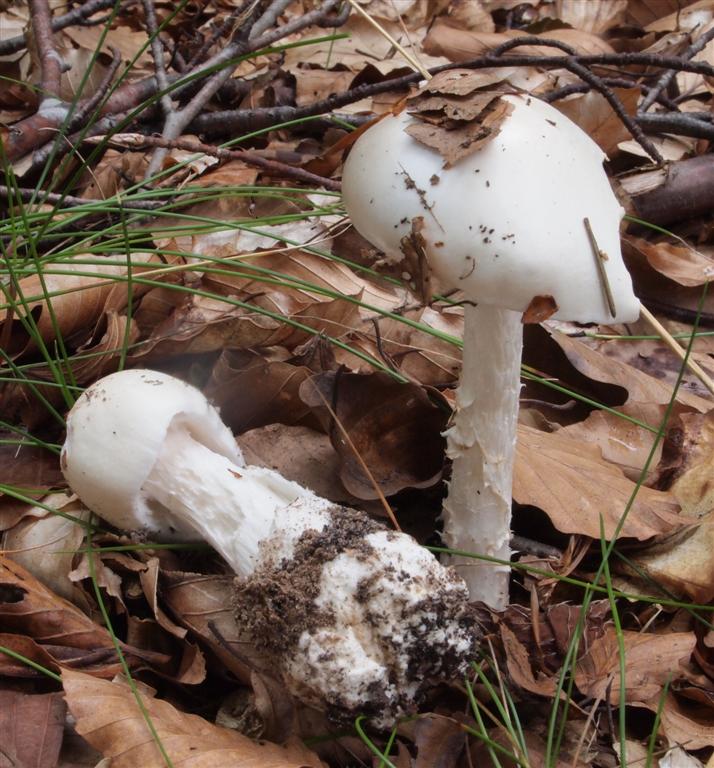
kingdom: Fungi
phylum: Basidiomycota
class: Agaricomycetes
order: Agaricales
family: Amanitaceae
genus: Amanita
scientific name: Amanita virosa
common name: snehvid fluesvamp
